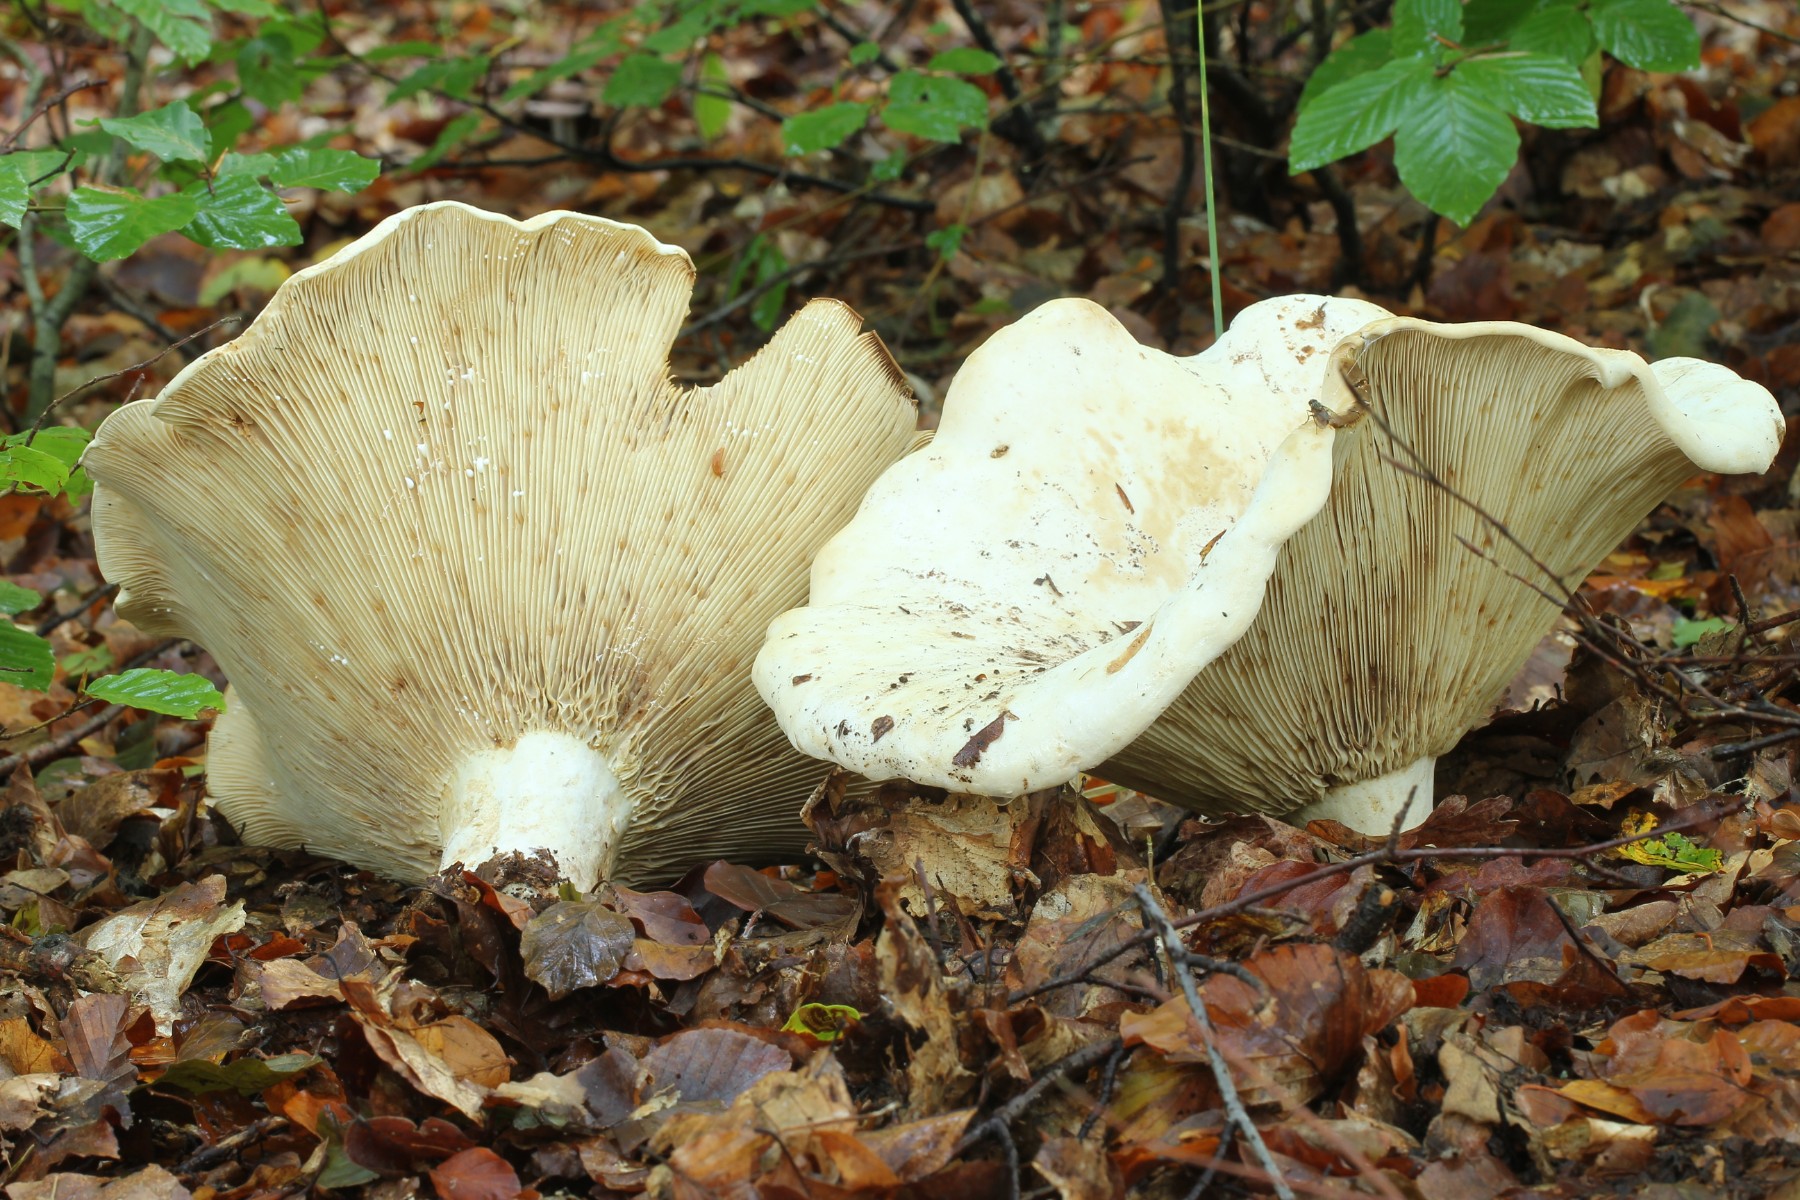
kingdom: Fungi
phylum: Basidiomycota
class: Agaricomycetes
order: Russulales
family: Russulaceae
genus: Lactifluus
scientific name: Lactifluus
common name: mælkehat
